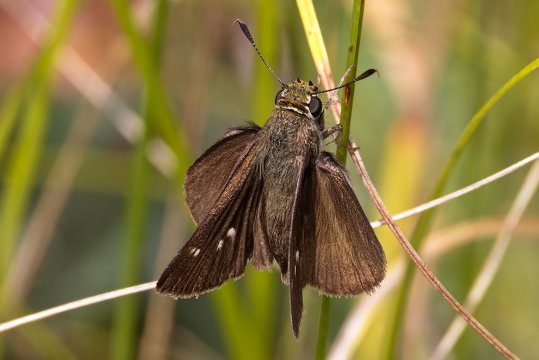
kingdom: Animalia
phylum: Arthropoda
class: Insecta
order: Lepidoptera
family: Hesperiidae
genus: Euphyes
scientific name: Euphyes vestris
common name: Dun Skipper
